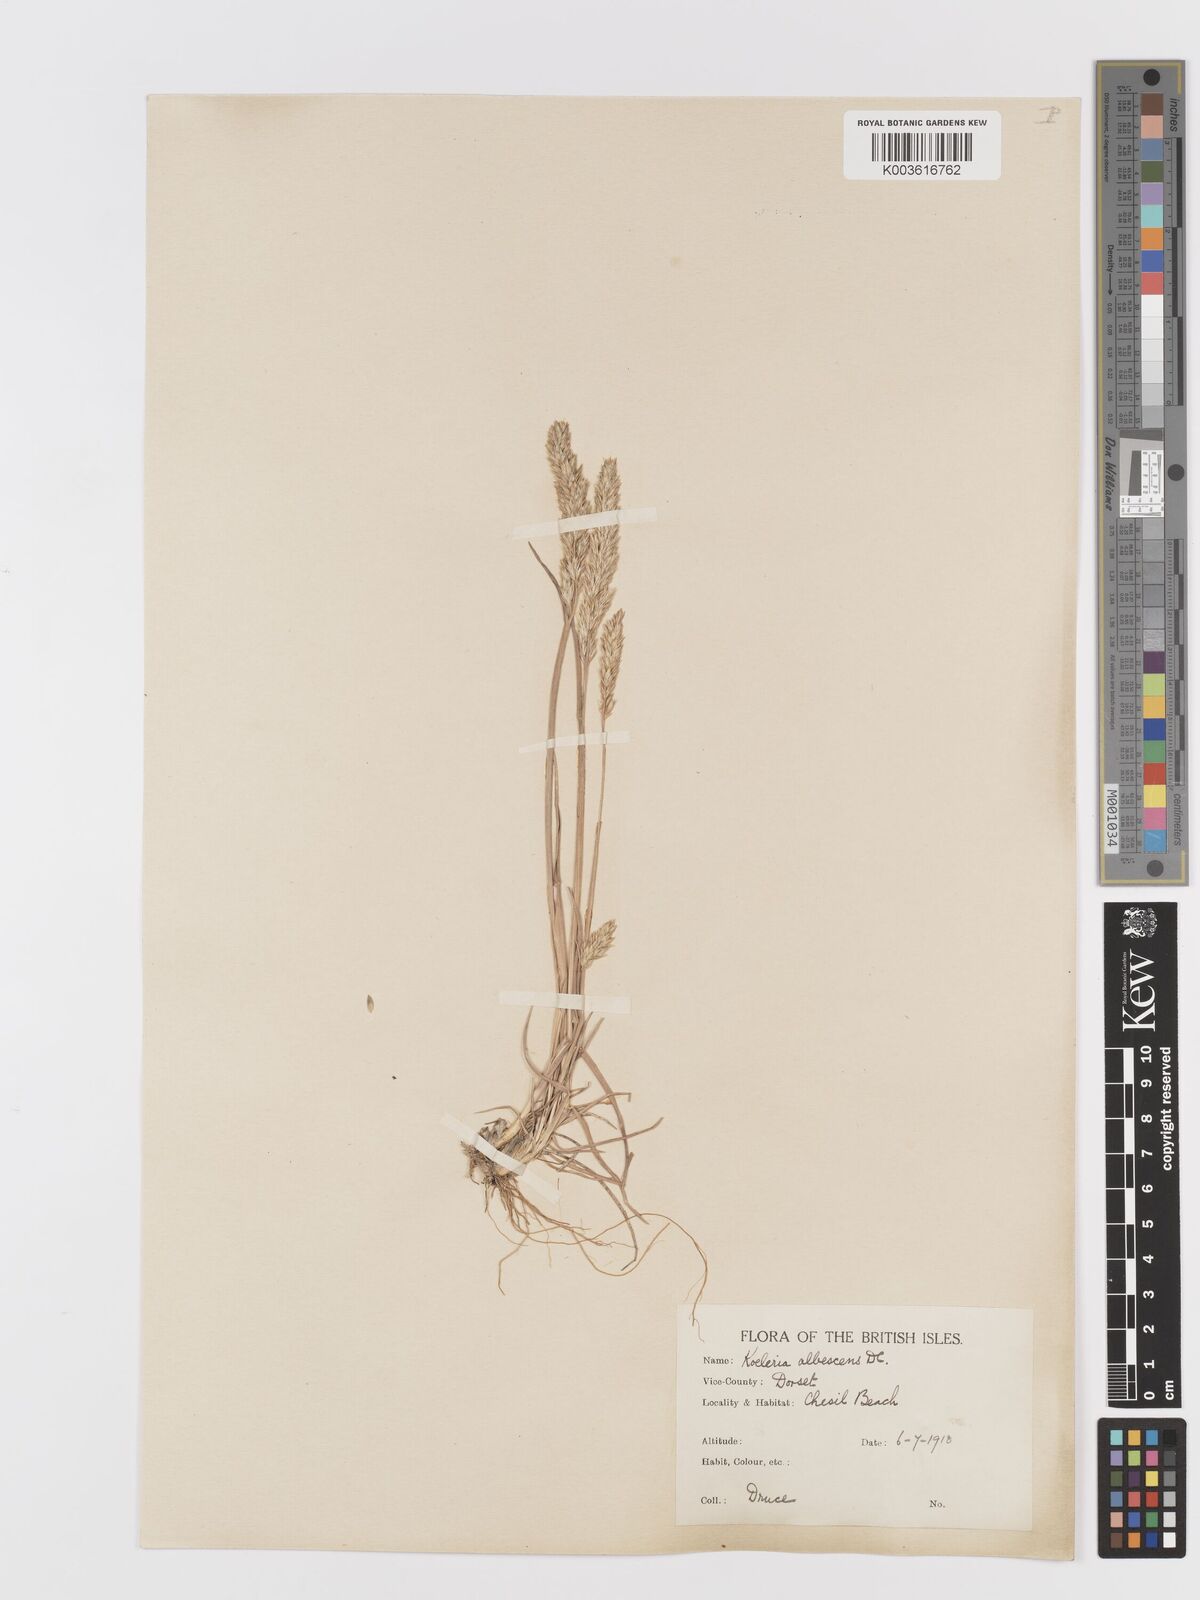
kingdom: Plantae
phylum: Tracheophyta
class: Liliopsida
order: Poales
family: Poaceae
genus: Koeleria
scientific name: Koeleria
